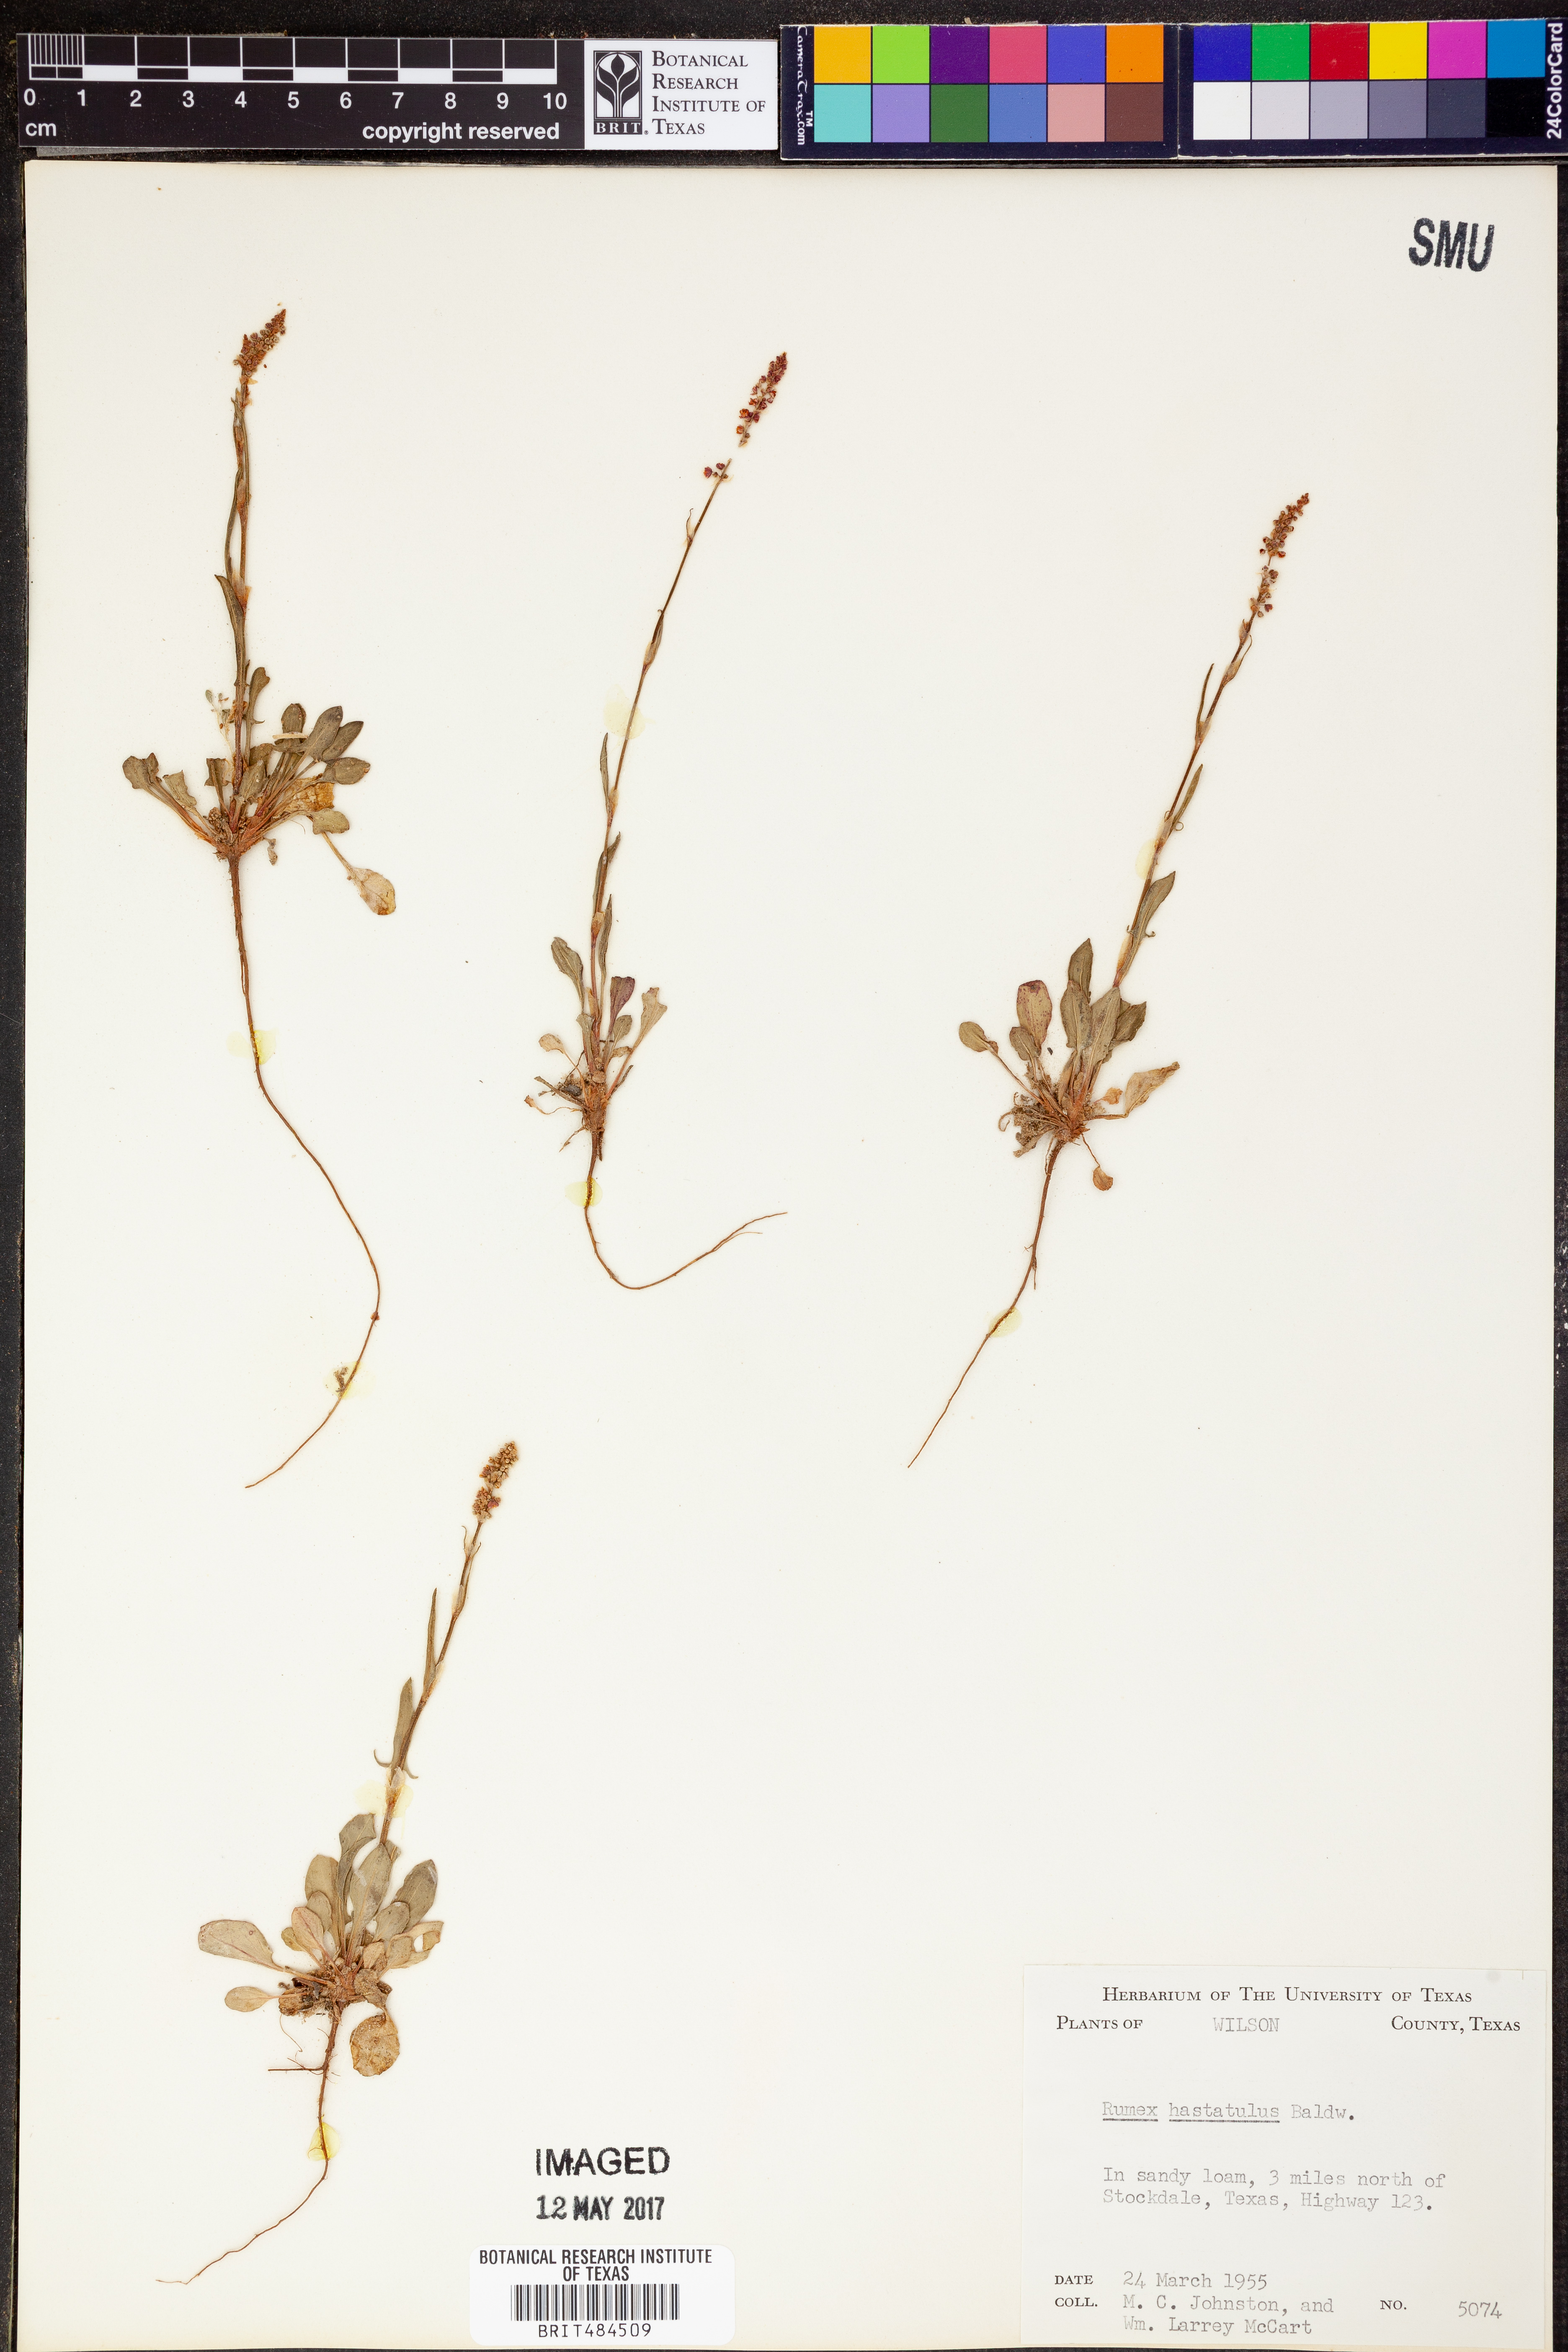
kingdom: Plantae
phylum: Tracheophyta
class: Magnoliopsida
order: Caryophyllales
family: Polygonaceae
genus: Rumex
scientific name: Rumex hastatulus
